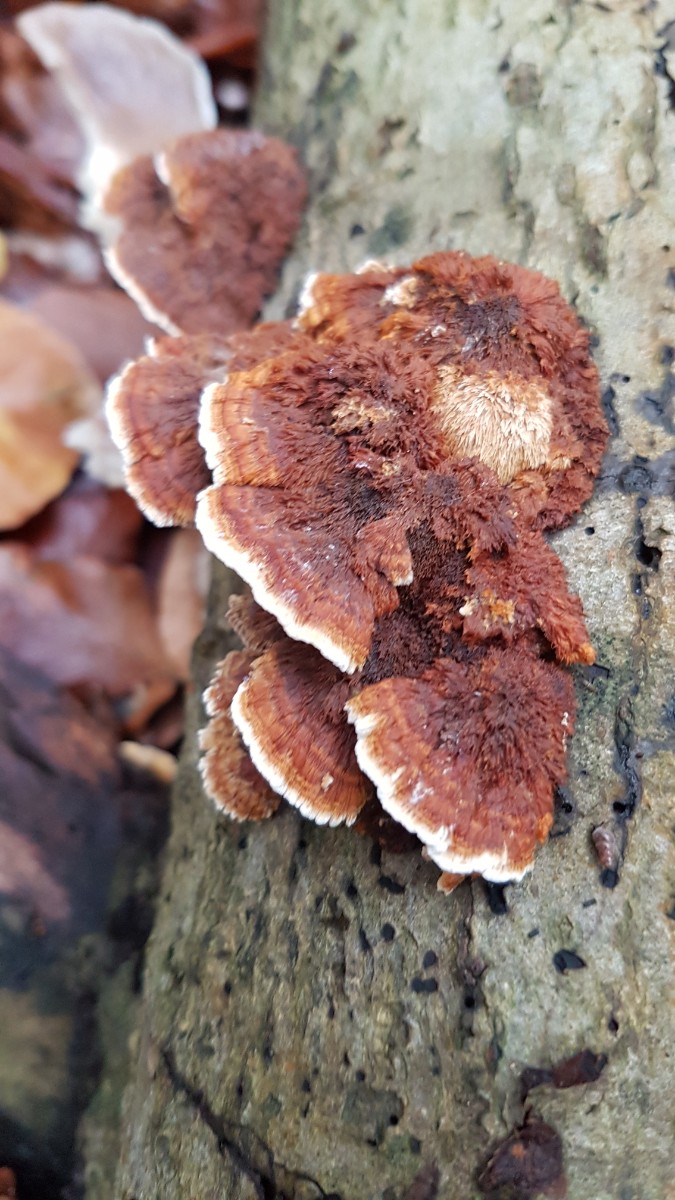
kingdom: Fungi
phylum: Basidiomycota
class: Agaricomycetes
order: Hymenochaetales
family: Hymenochaetaceae
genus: Inonotus
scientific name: Inonotus cuticularis
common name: kroghåret spejlporesvamp
